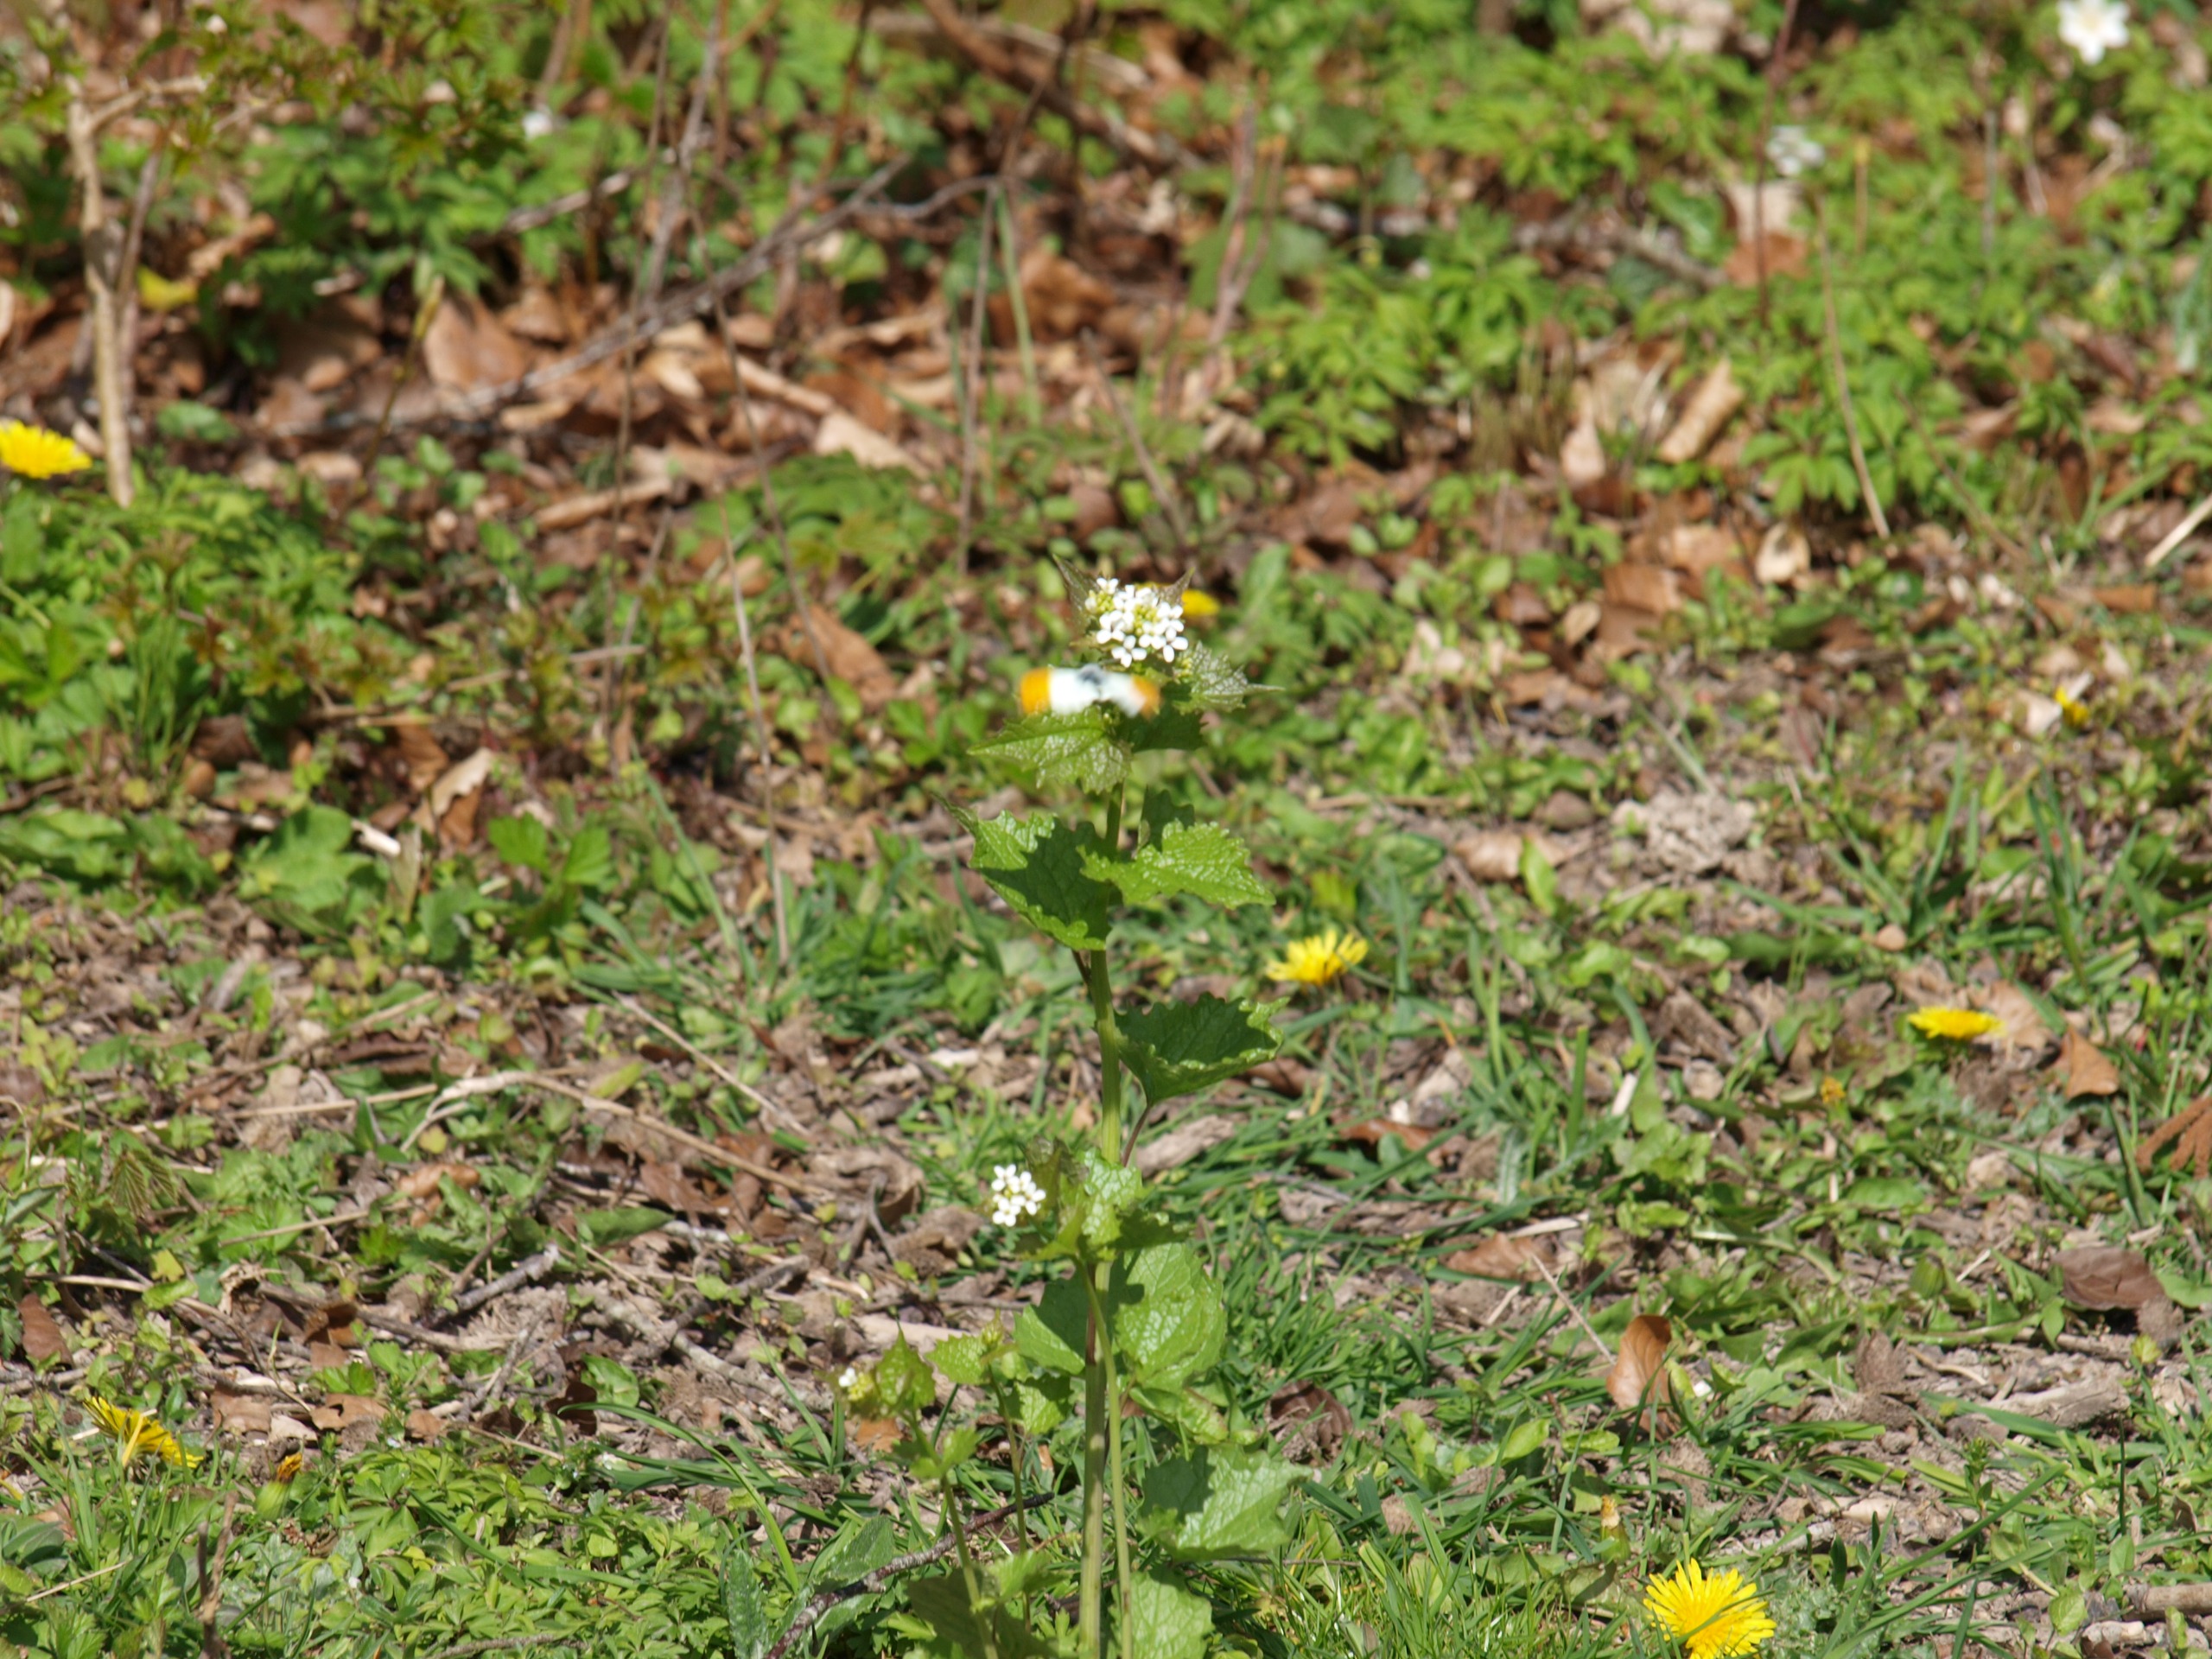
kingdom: Animalia
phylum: Arthropoda
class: Insecta
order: Lepidoptera
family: Pieridae
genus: Anthocharis
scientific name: Anthocharis cardamines
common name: Aurora
